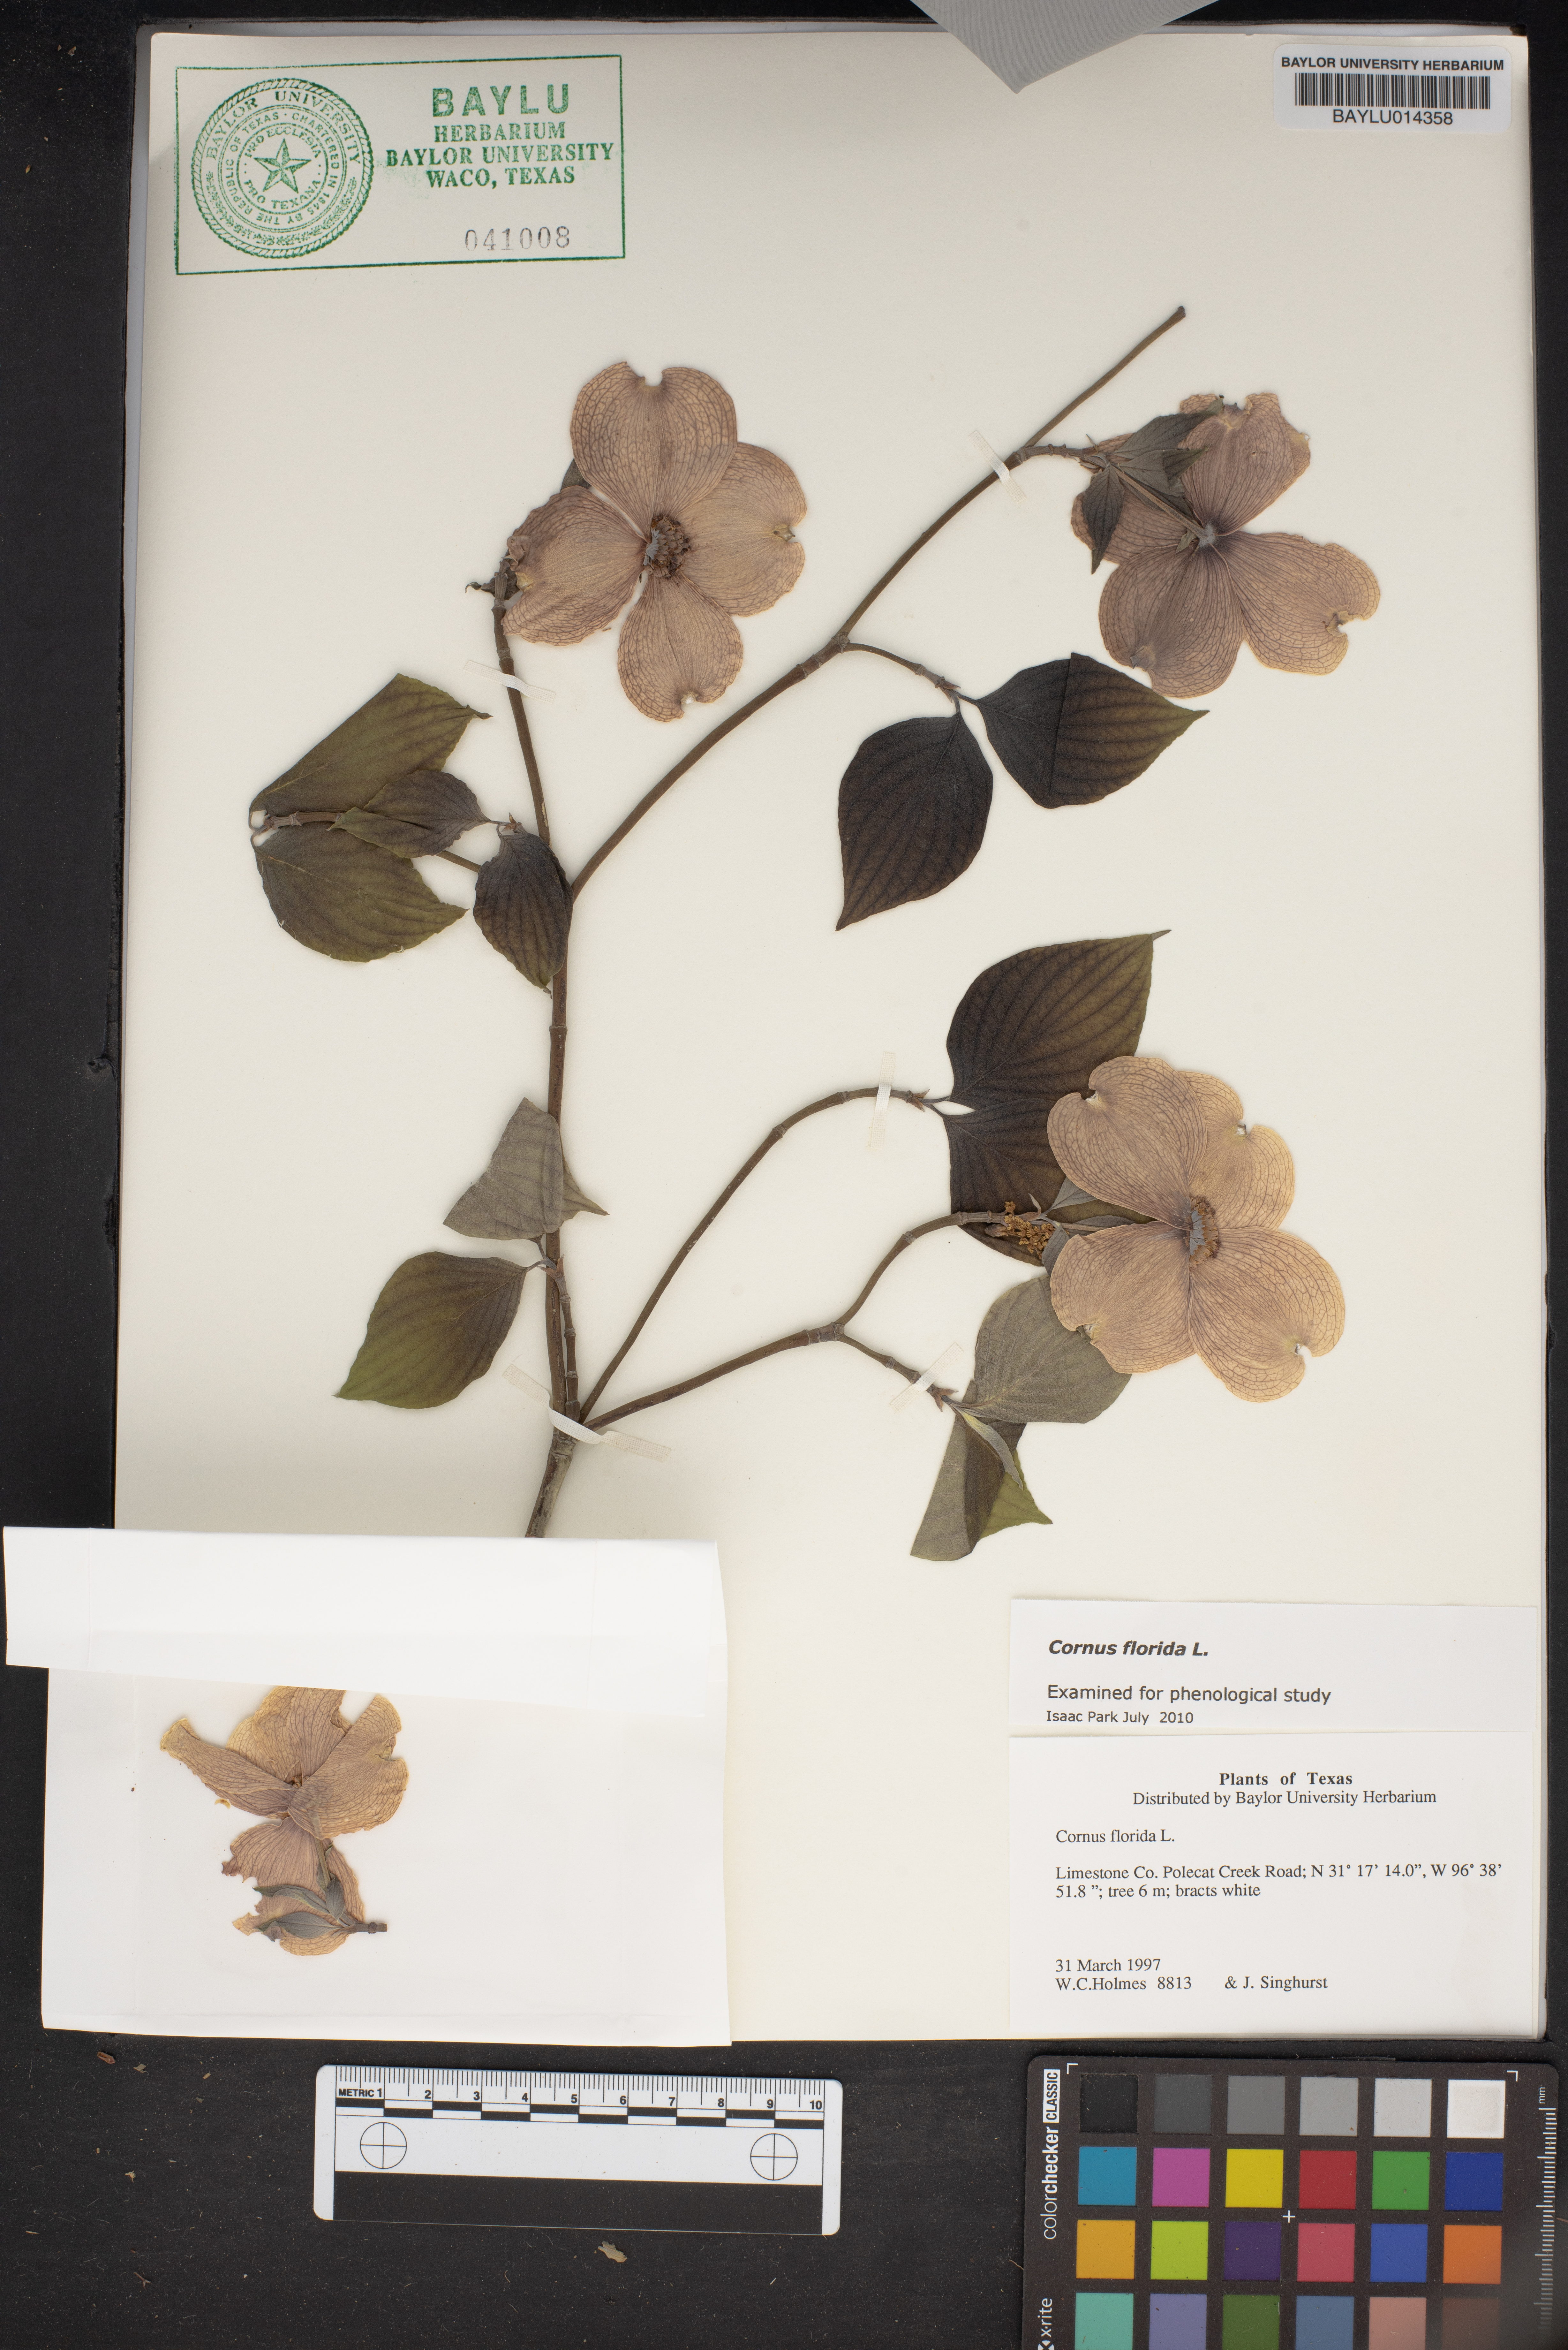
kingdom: Plantae
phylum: Tracheophyta
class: Magnoliopsida
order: Cornales
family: Cornaceae
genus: Cornus
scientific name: Cornus florida
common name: Flowering dogwood
